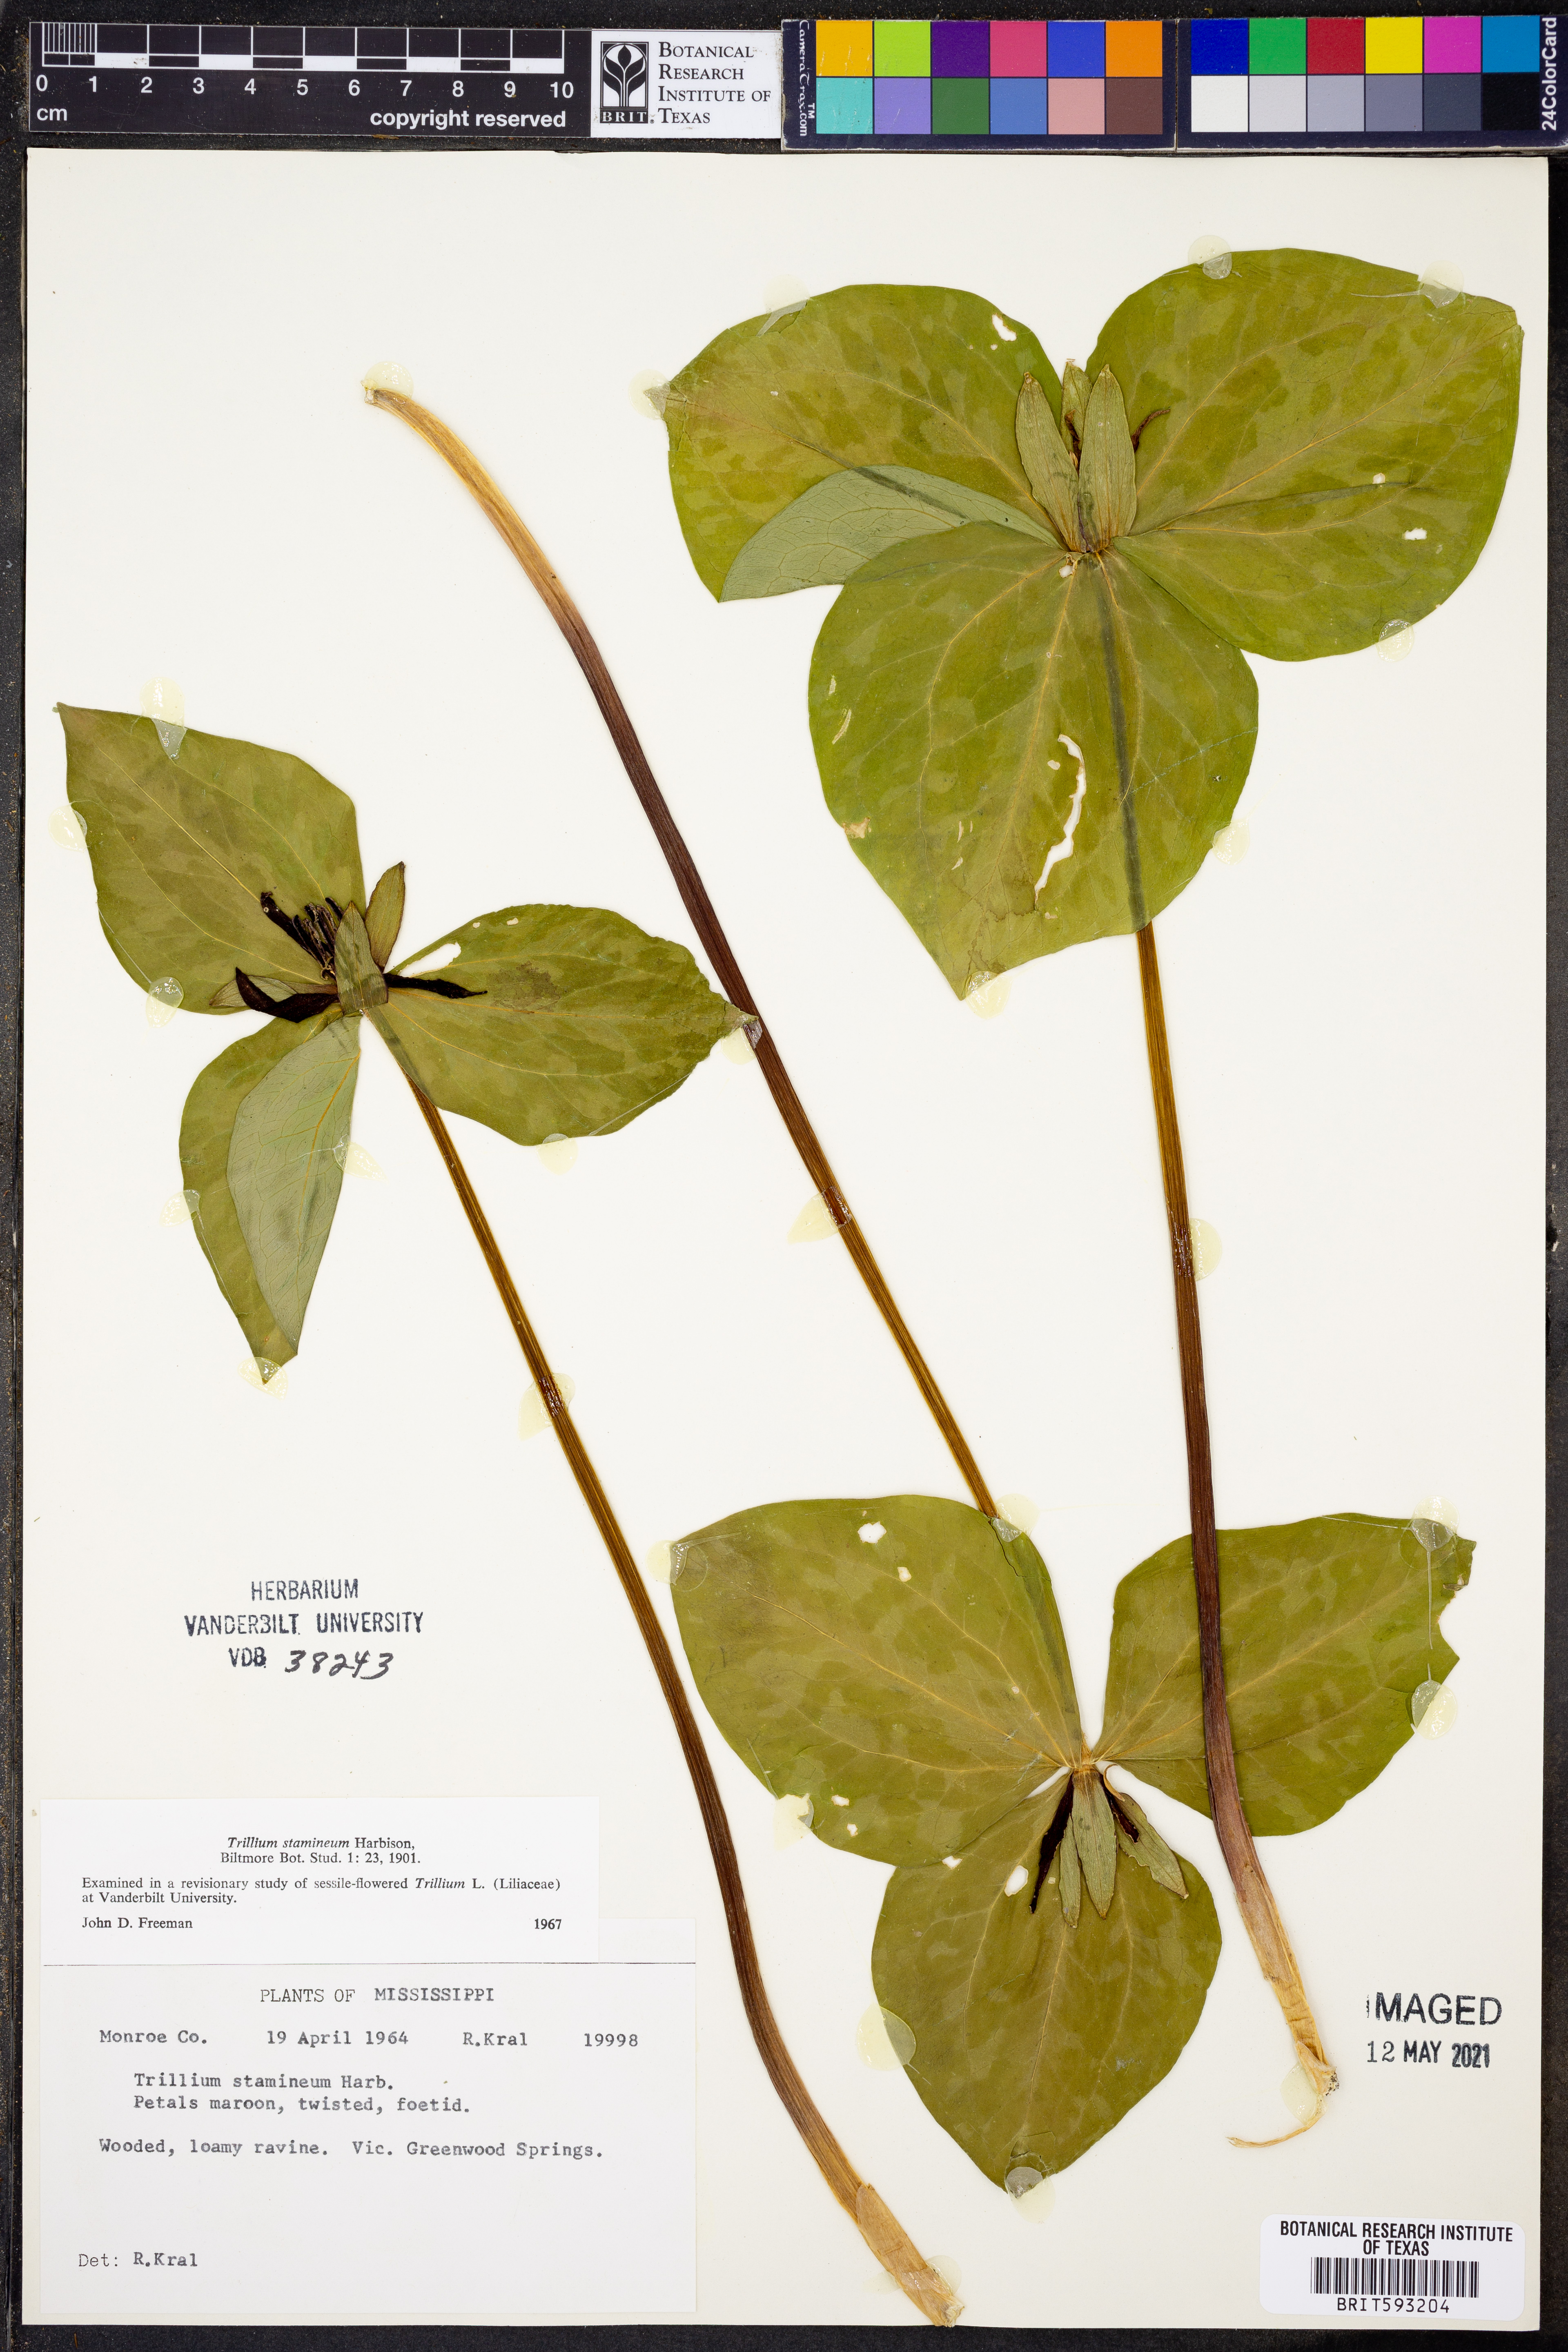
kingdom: Plantae
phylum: Tracheophyta
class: Liliopsida
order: Liliales
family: Melanthiaceae
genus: Trillium
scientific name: Trillium stamineum
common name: Blue ridge wakerobin
